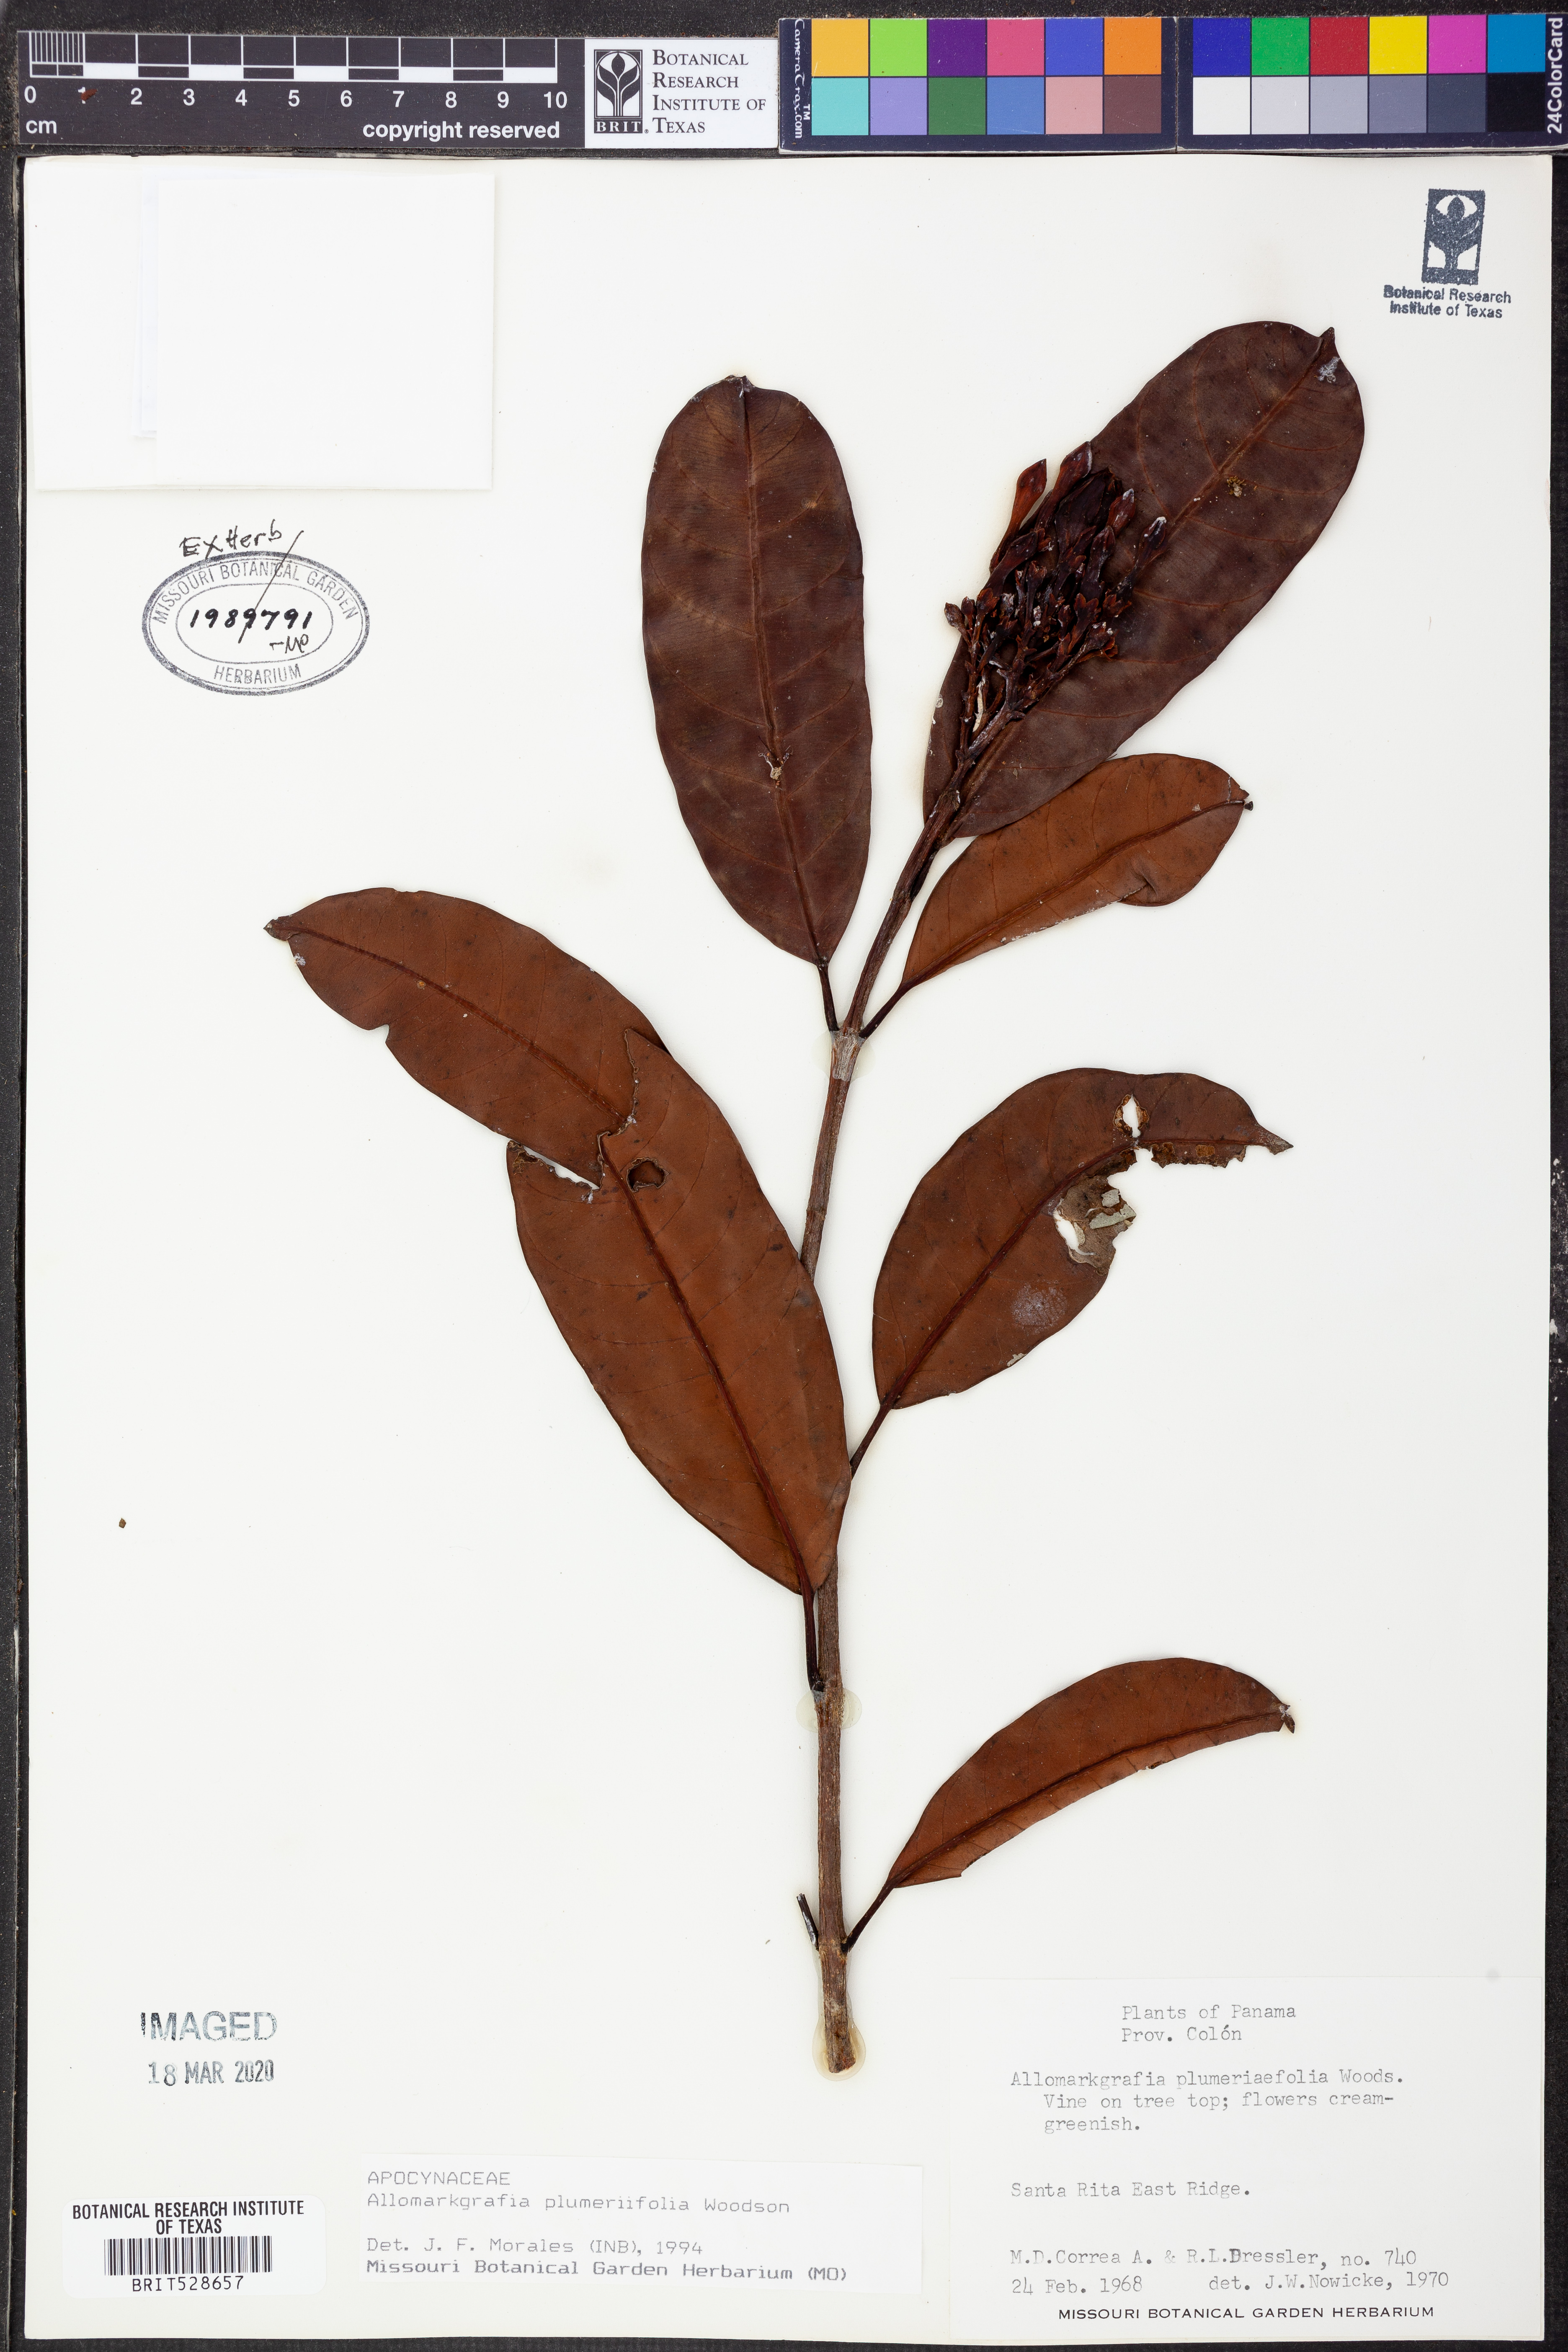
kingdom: Plantae
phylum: Tracheophyta
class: Magnoliopsida
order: Gentianales
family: Apocynaceae
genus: Allomarkgrafia
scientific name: Allomarkgrafia plumeriiflora
